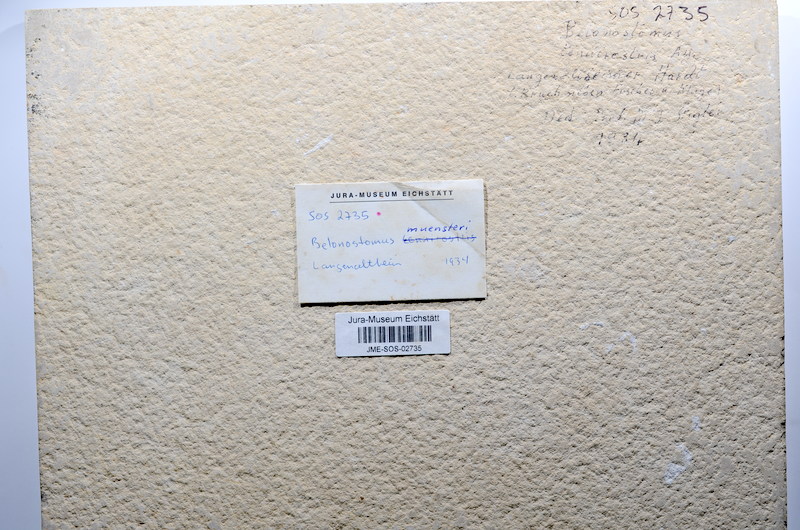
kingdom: Animalia
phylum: Chordata
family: Aspidorhynchidae
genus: Belonostomus
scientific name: Belonostomus tenuirostris
